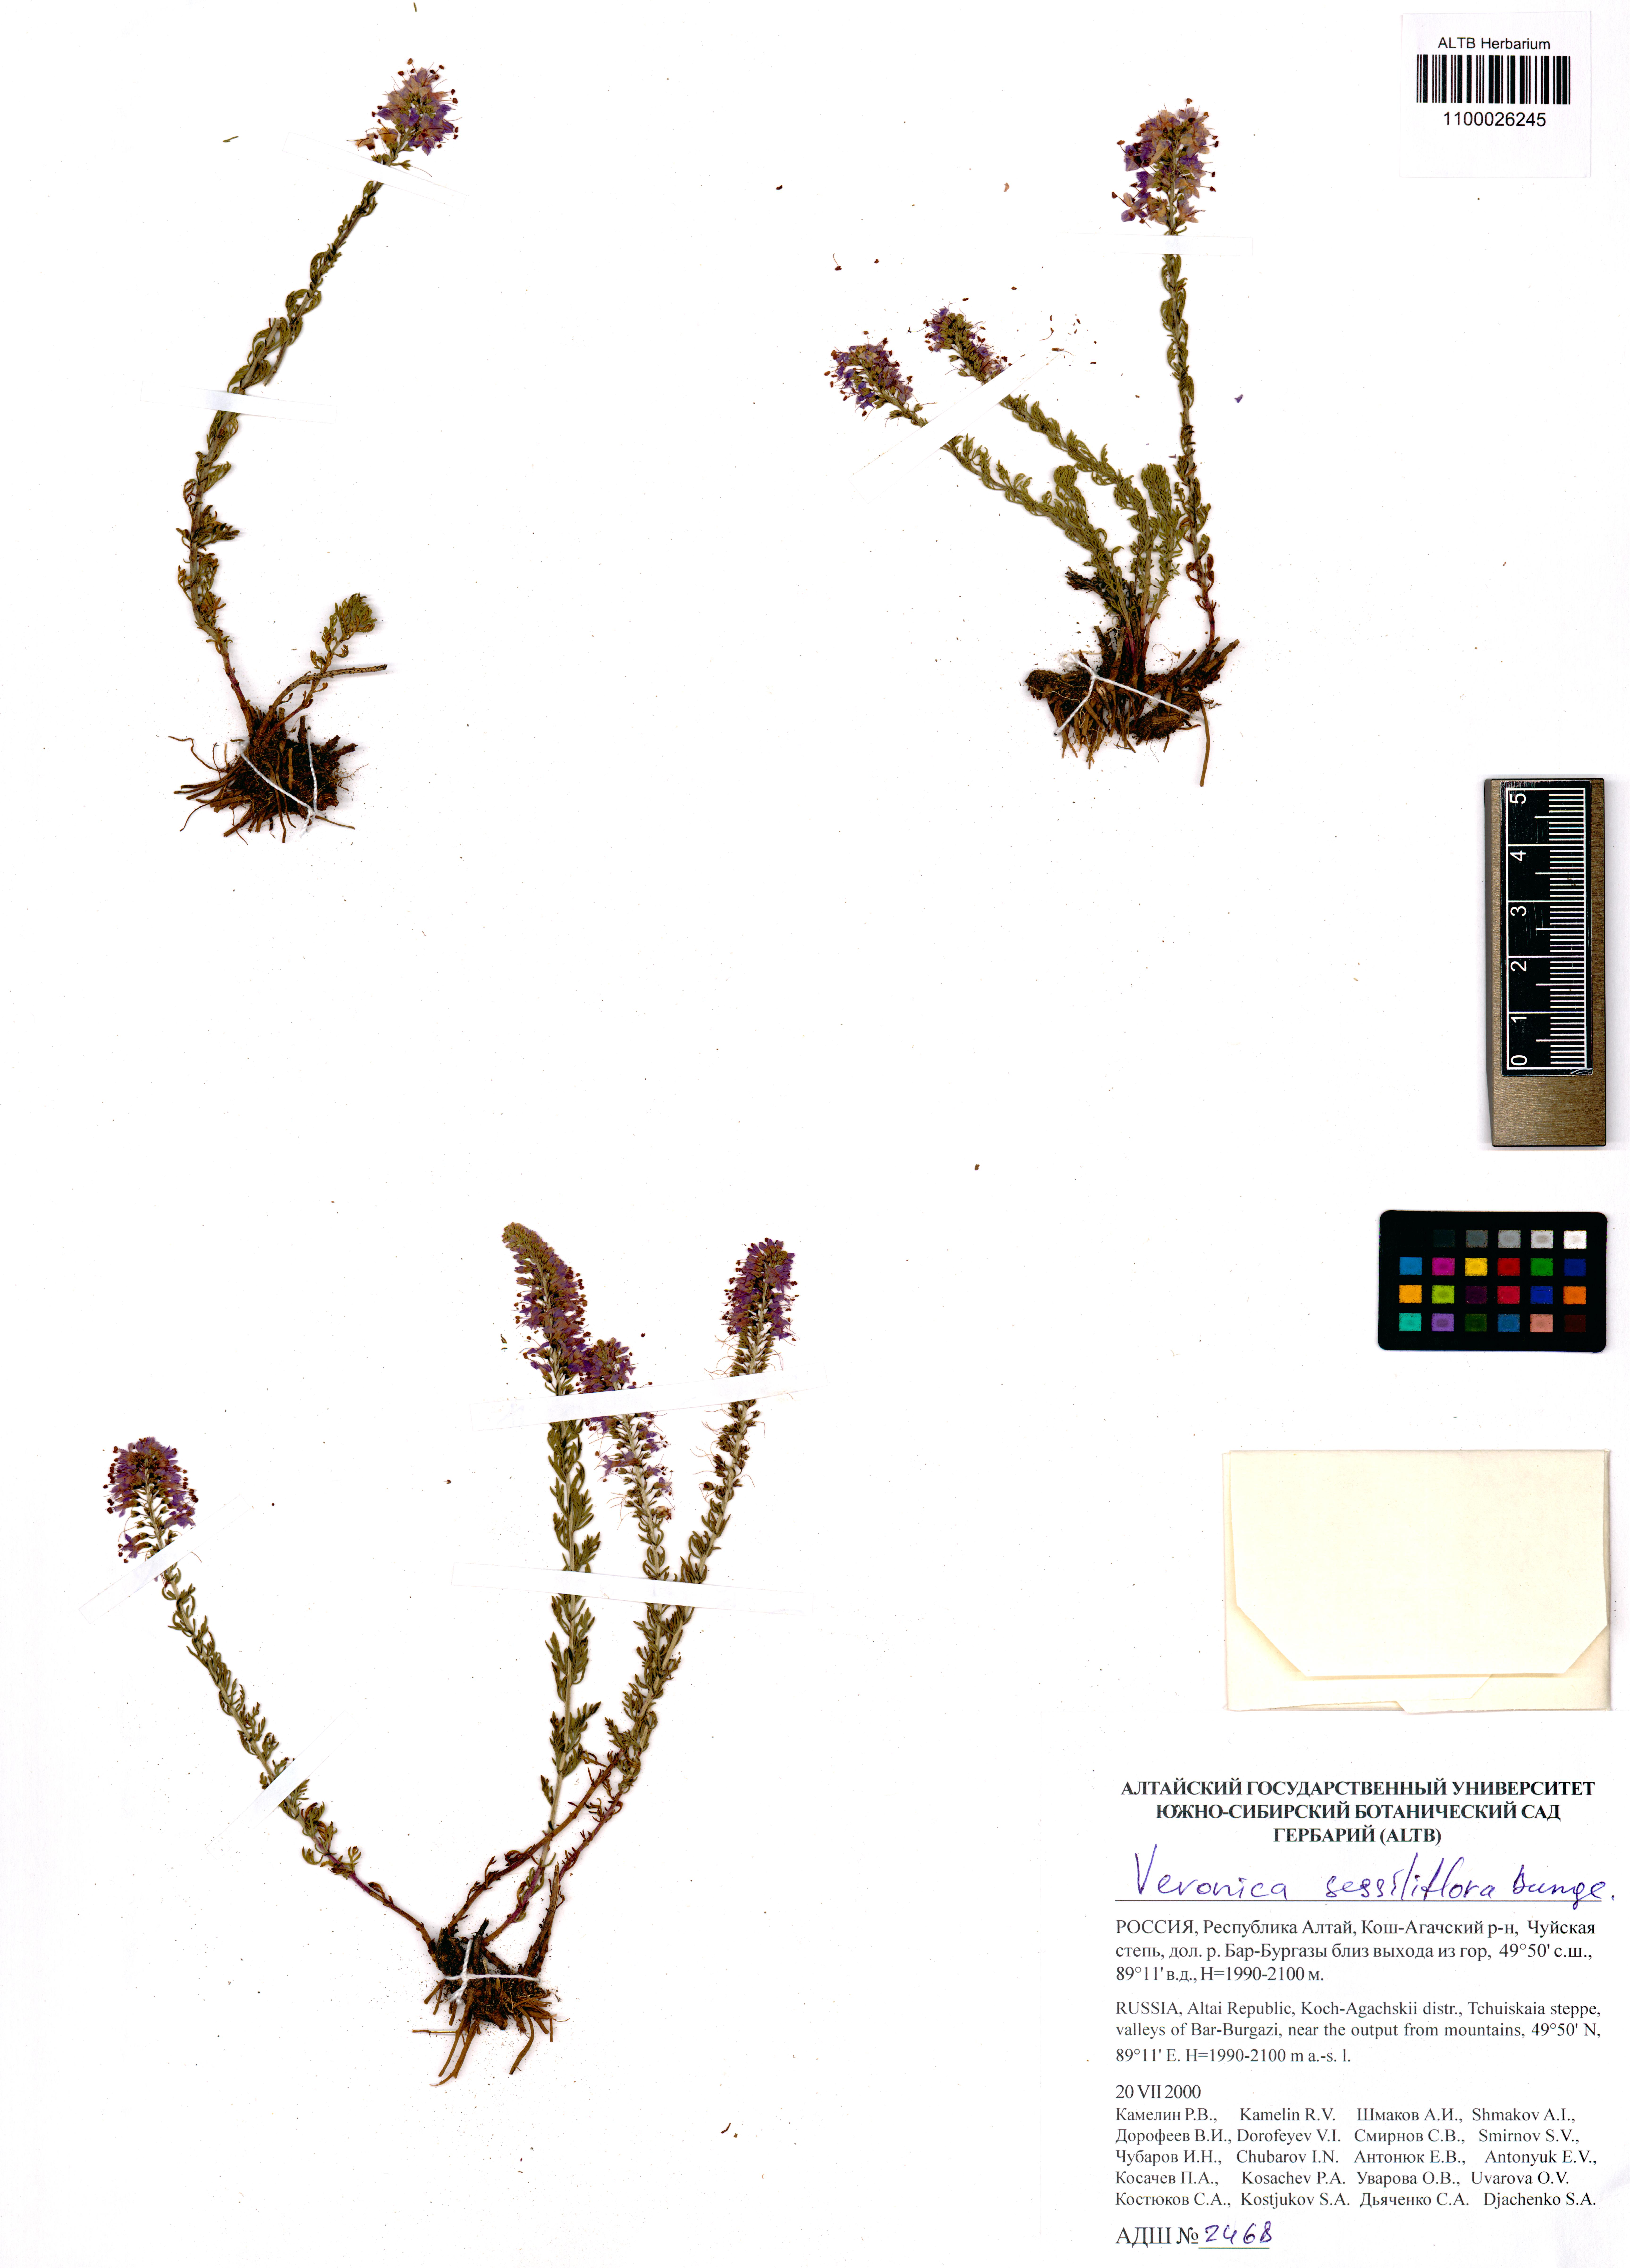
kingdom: Plantae
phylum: Tracheophyta
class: Magnoliopsida
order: Lamiales
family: Plantaginaceae
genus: Veronica
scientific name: Veronica sessiliflora
